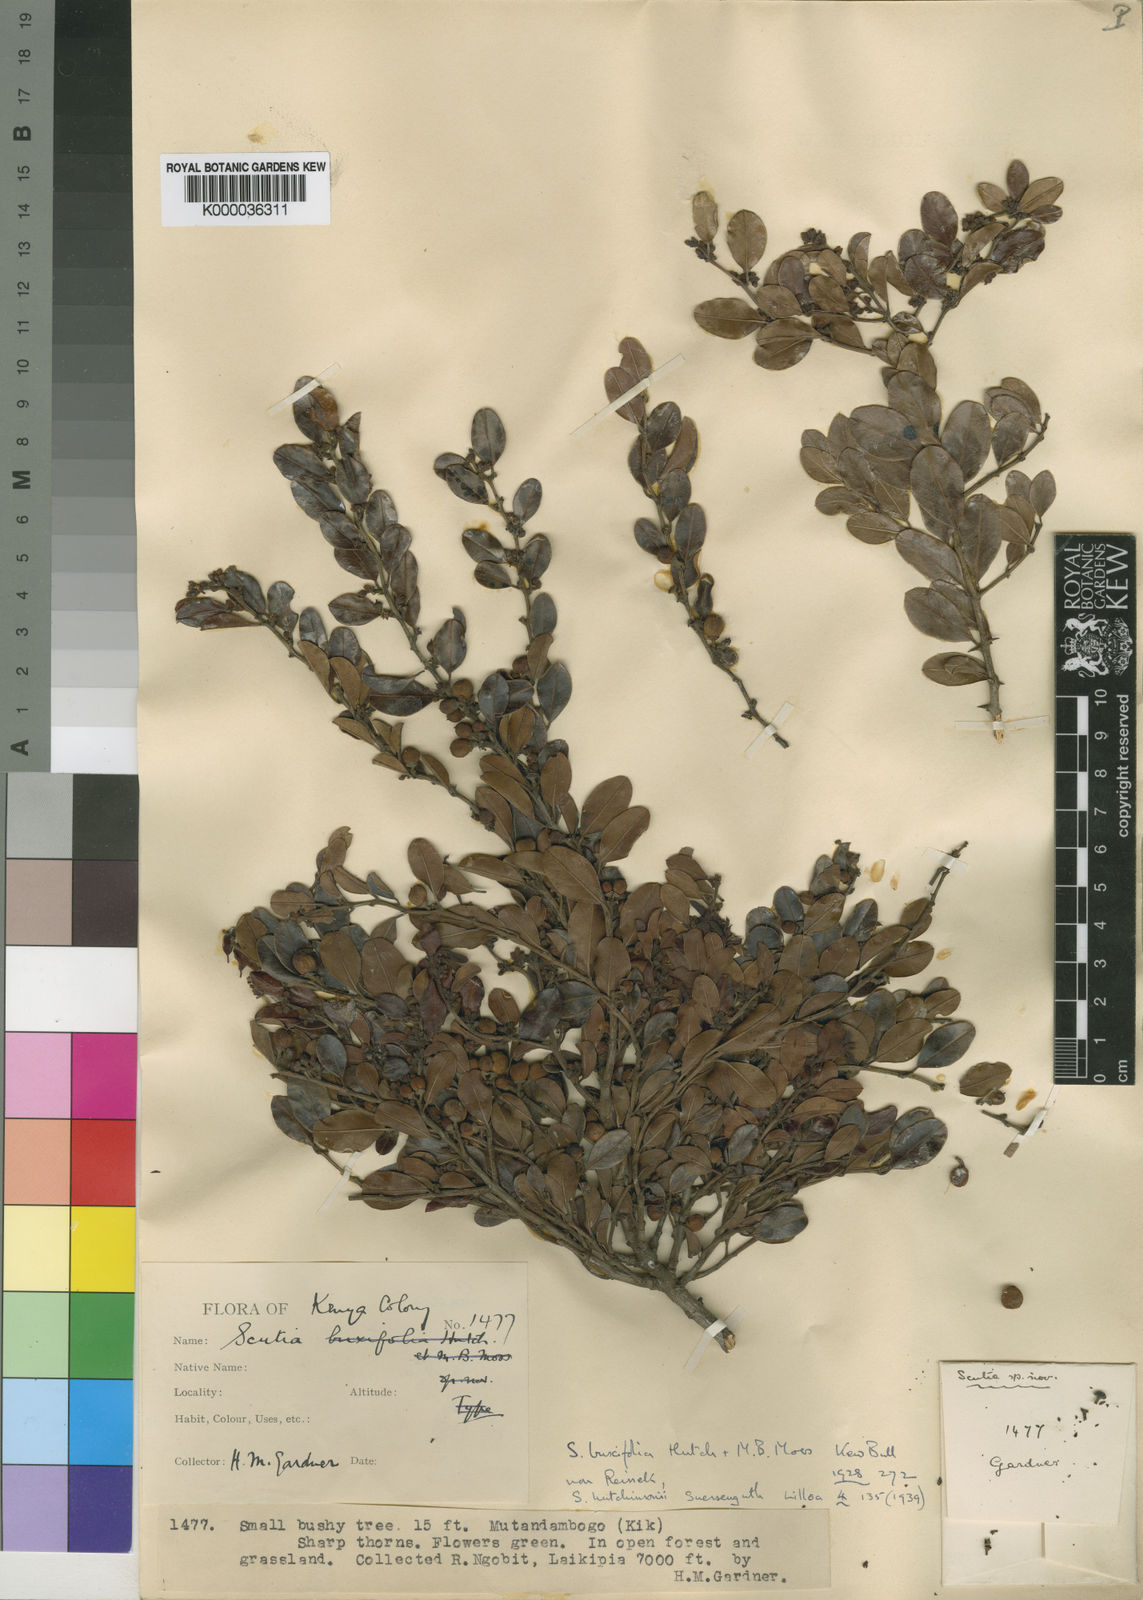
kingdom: Plantae
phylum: Tracheophyta
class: Magnoliopsida
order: Rosales
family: Rhamnaceae
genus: Scutia
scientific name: Scutia myrtina
